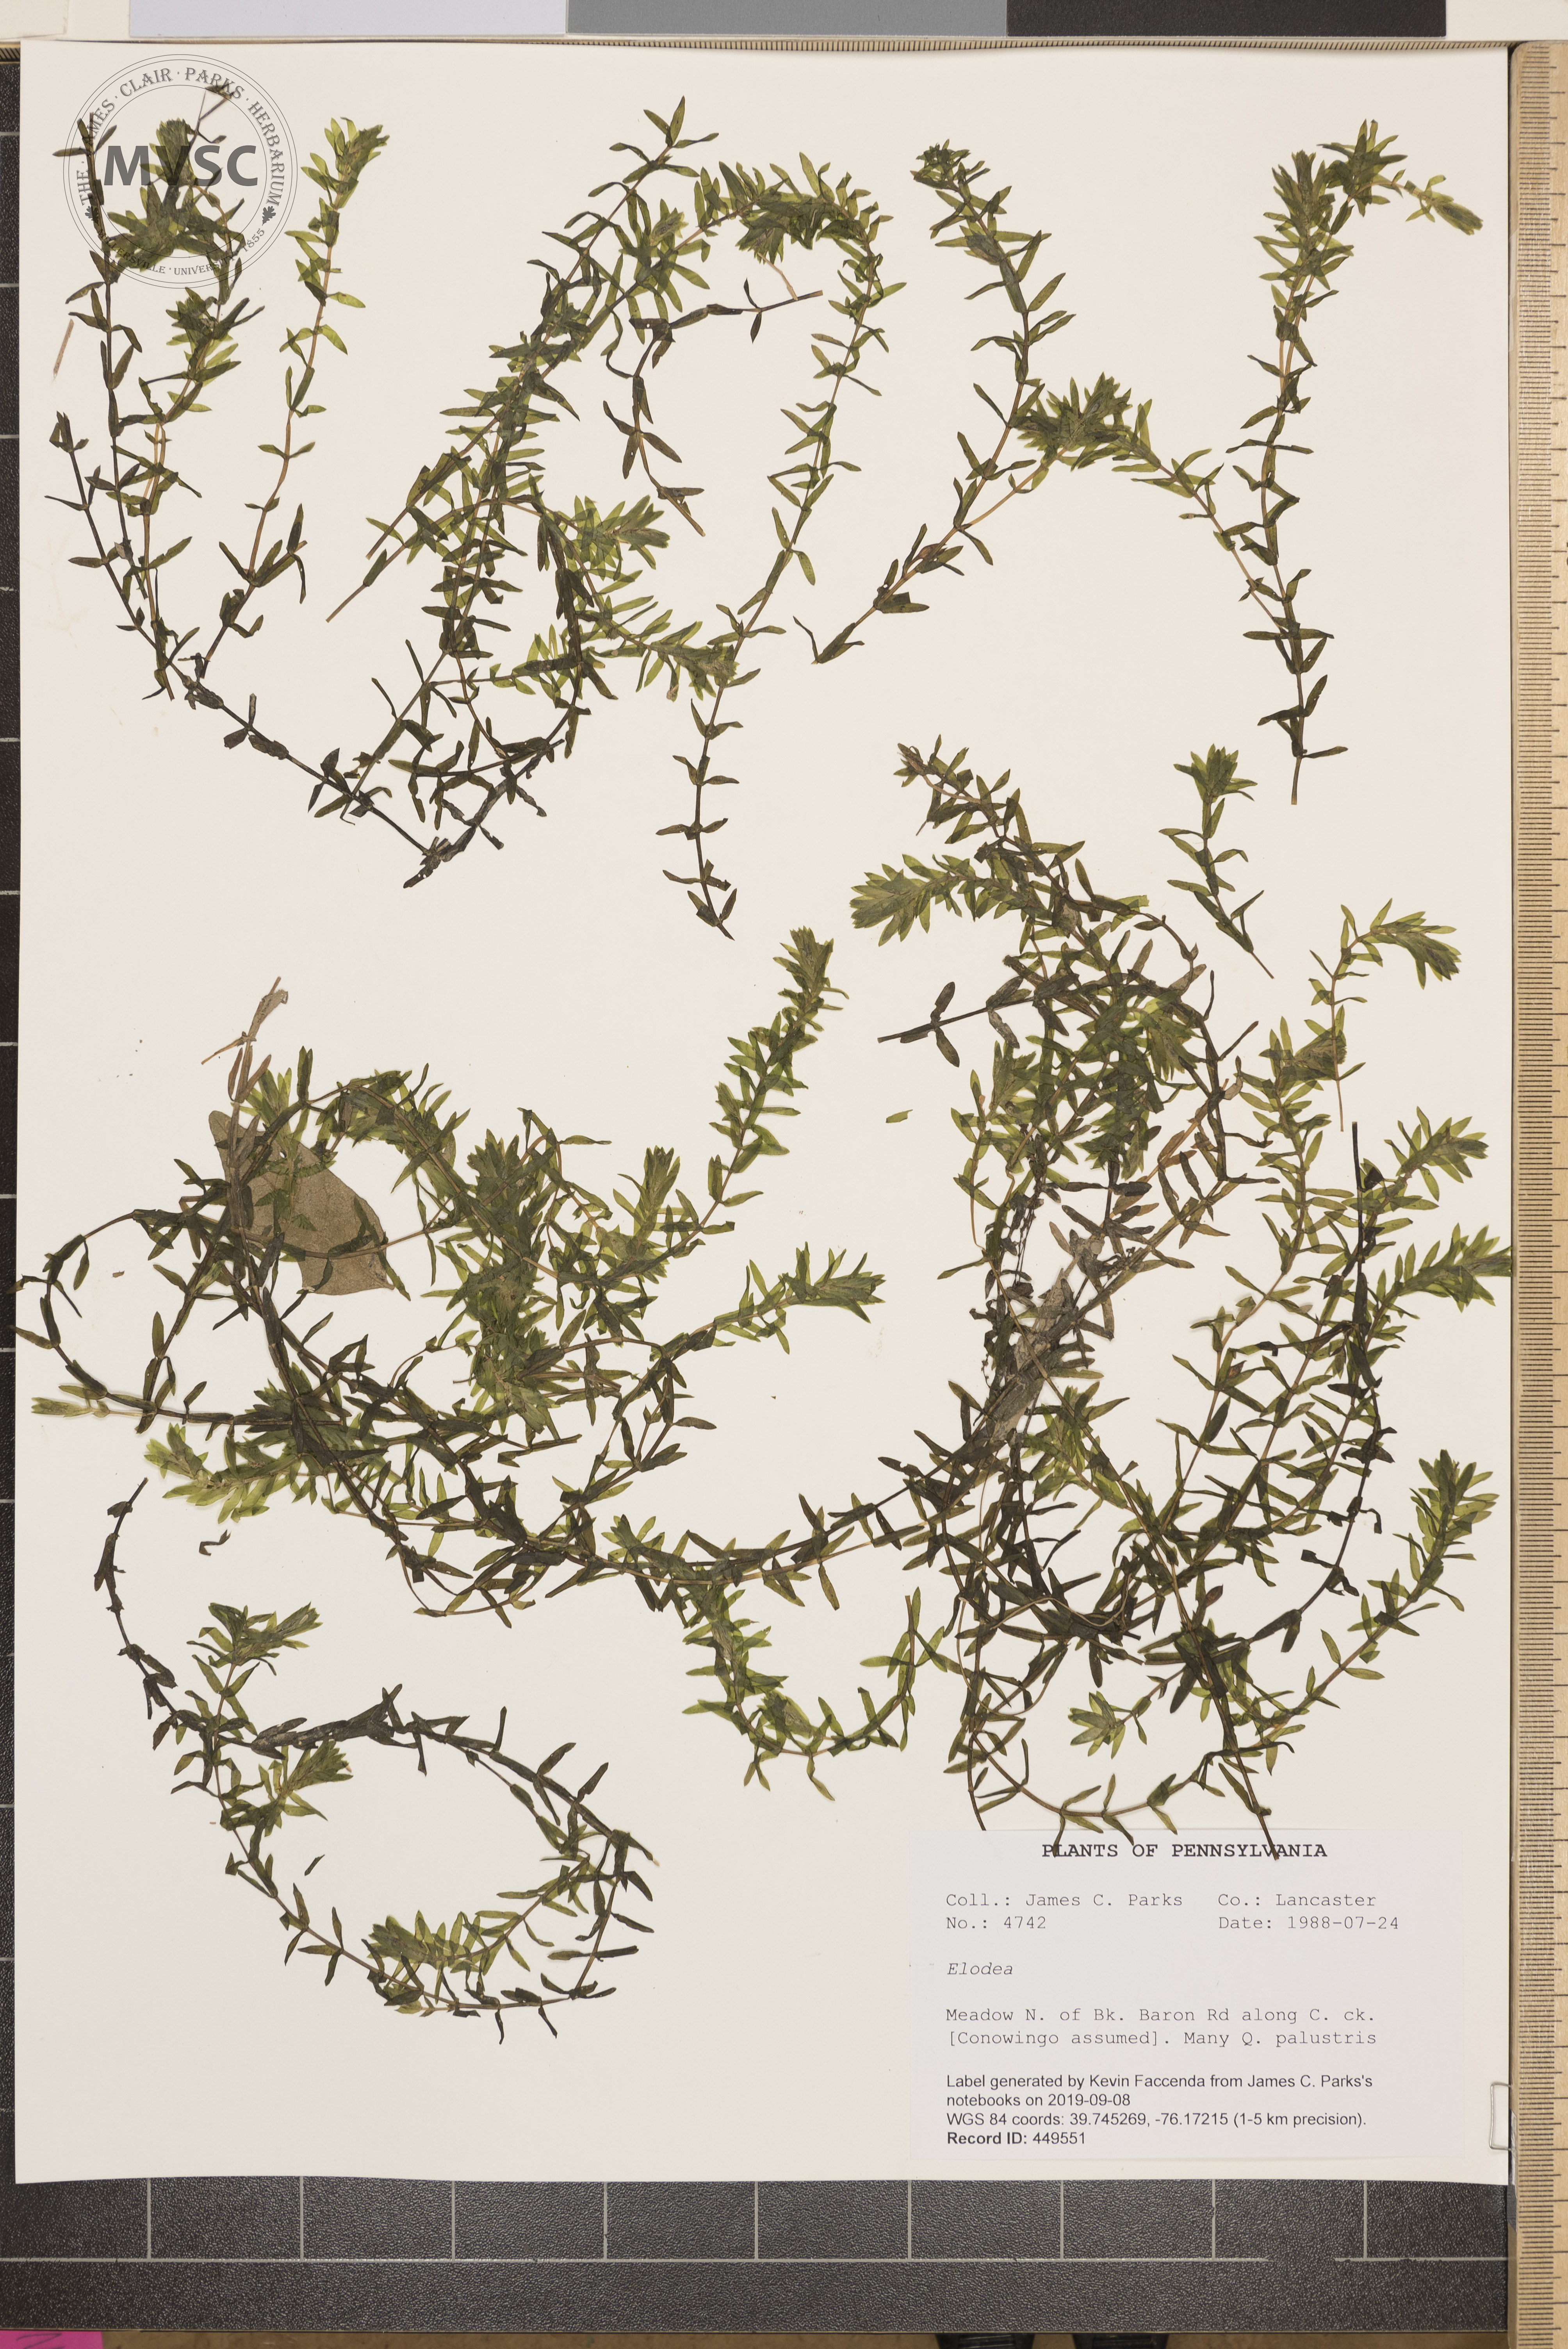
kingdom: Plantae
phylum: Tracheophyta
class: Liliopsida
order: Alismatales
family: Hydrocharitaceae
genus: Elodea
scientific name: Elodea canadensis
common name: Canadian waterweed
